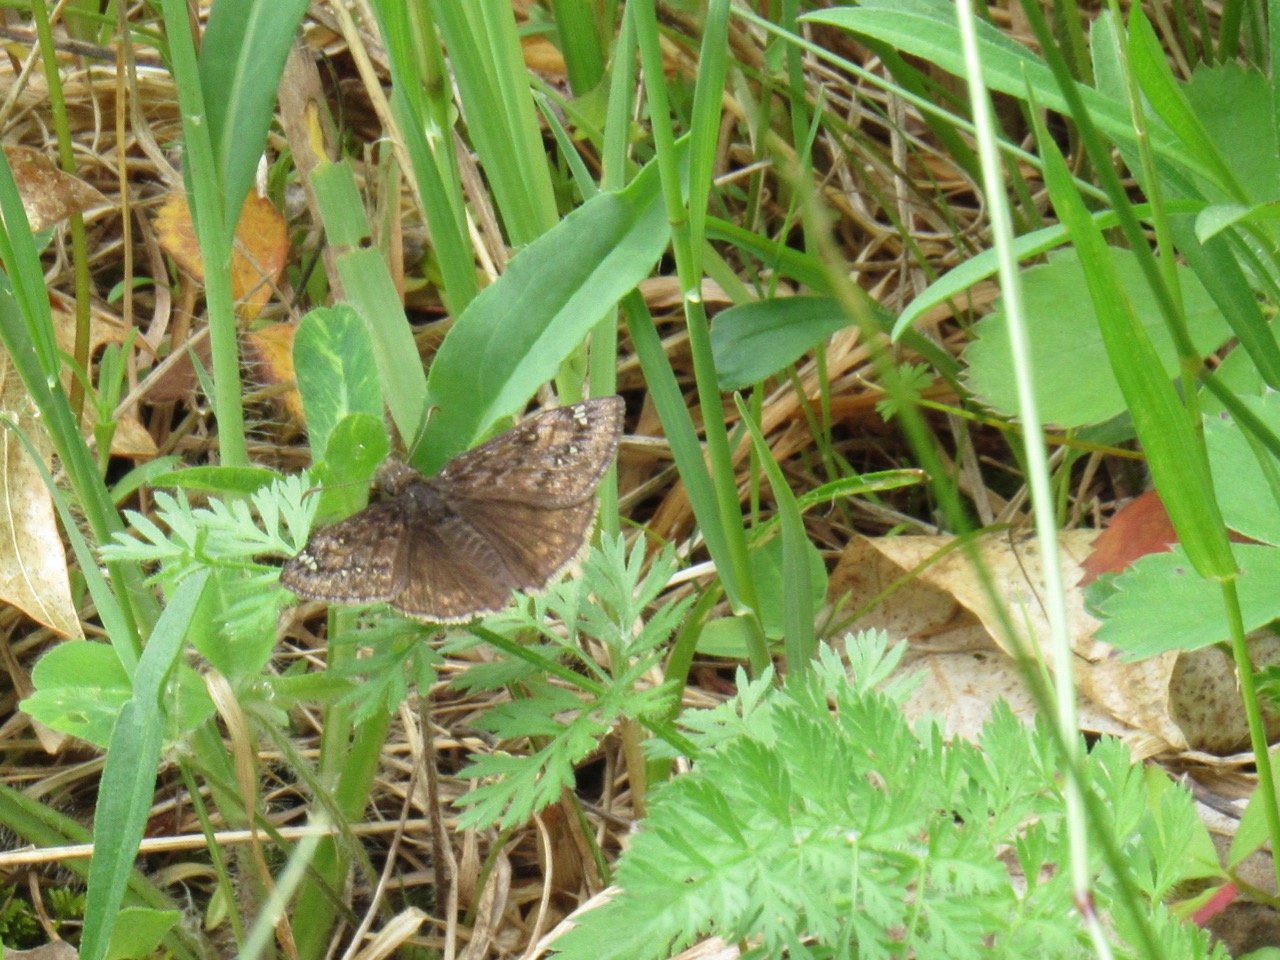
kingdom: Animalia
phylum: Arthropoda
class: Insecta
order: Lepidoptera
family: Hesperiidae
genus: Gesta
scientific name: Gesta
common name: Juvenal's Duskywing
